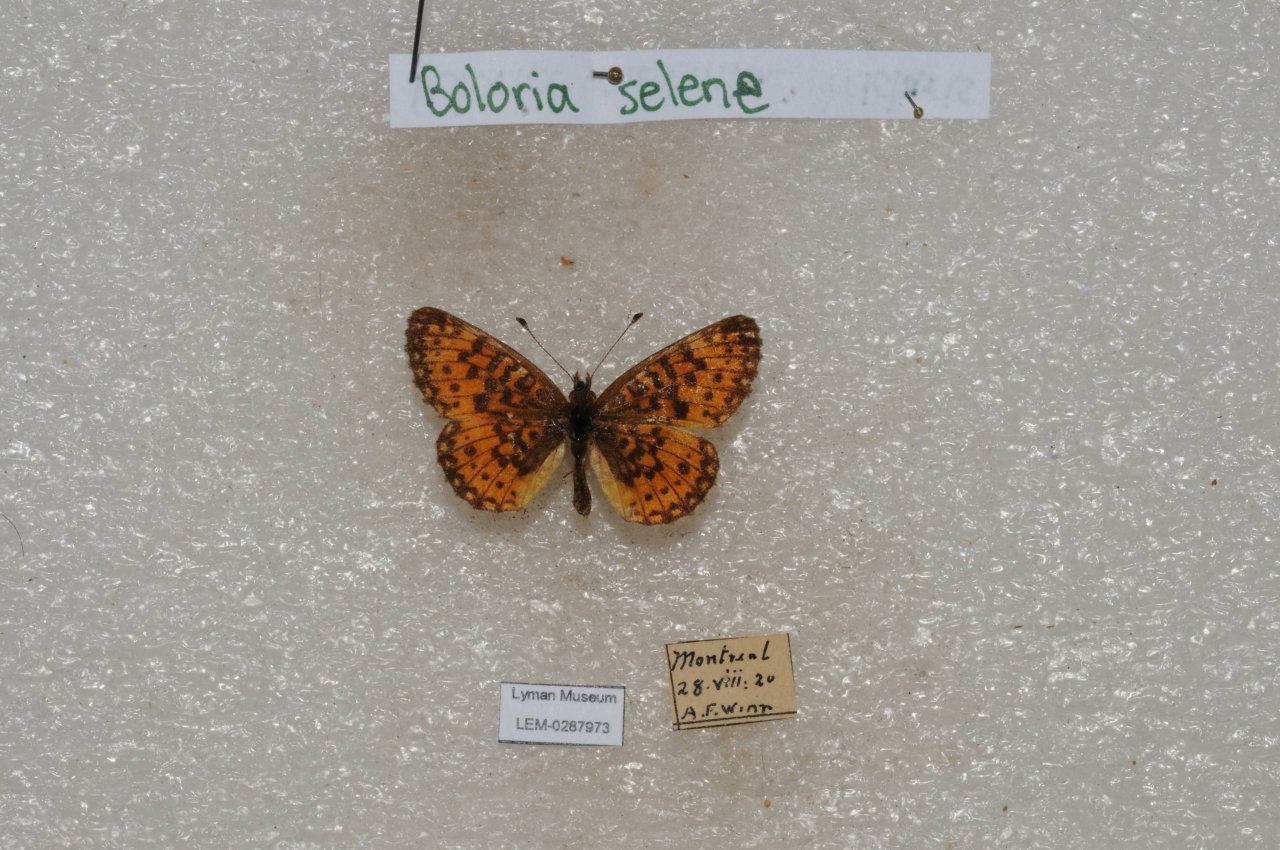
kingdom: Animalia
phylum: Arthropoda
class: Insecta
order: Lepidoptera
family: Nymphalidae
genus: Boloria
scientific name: Boloria selene
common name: Silver-bordered Fritillary
